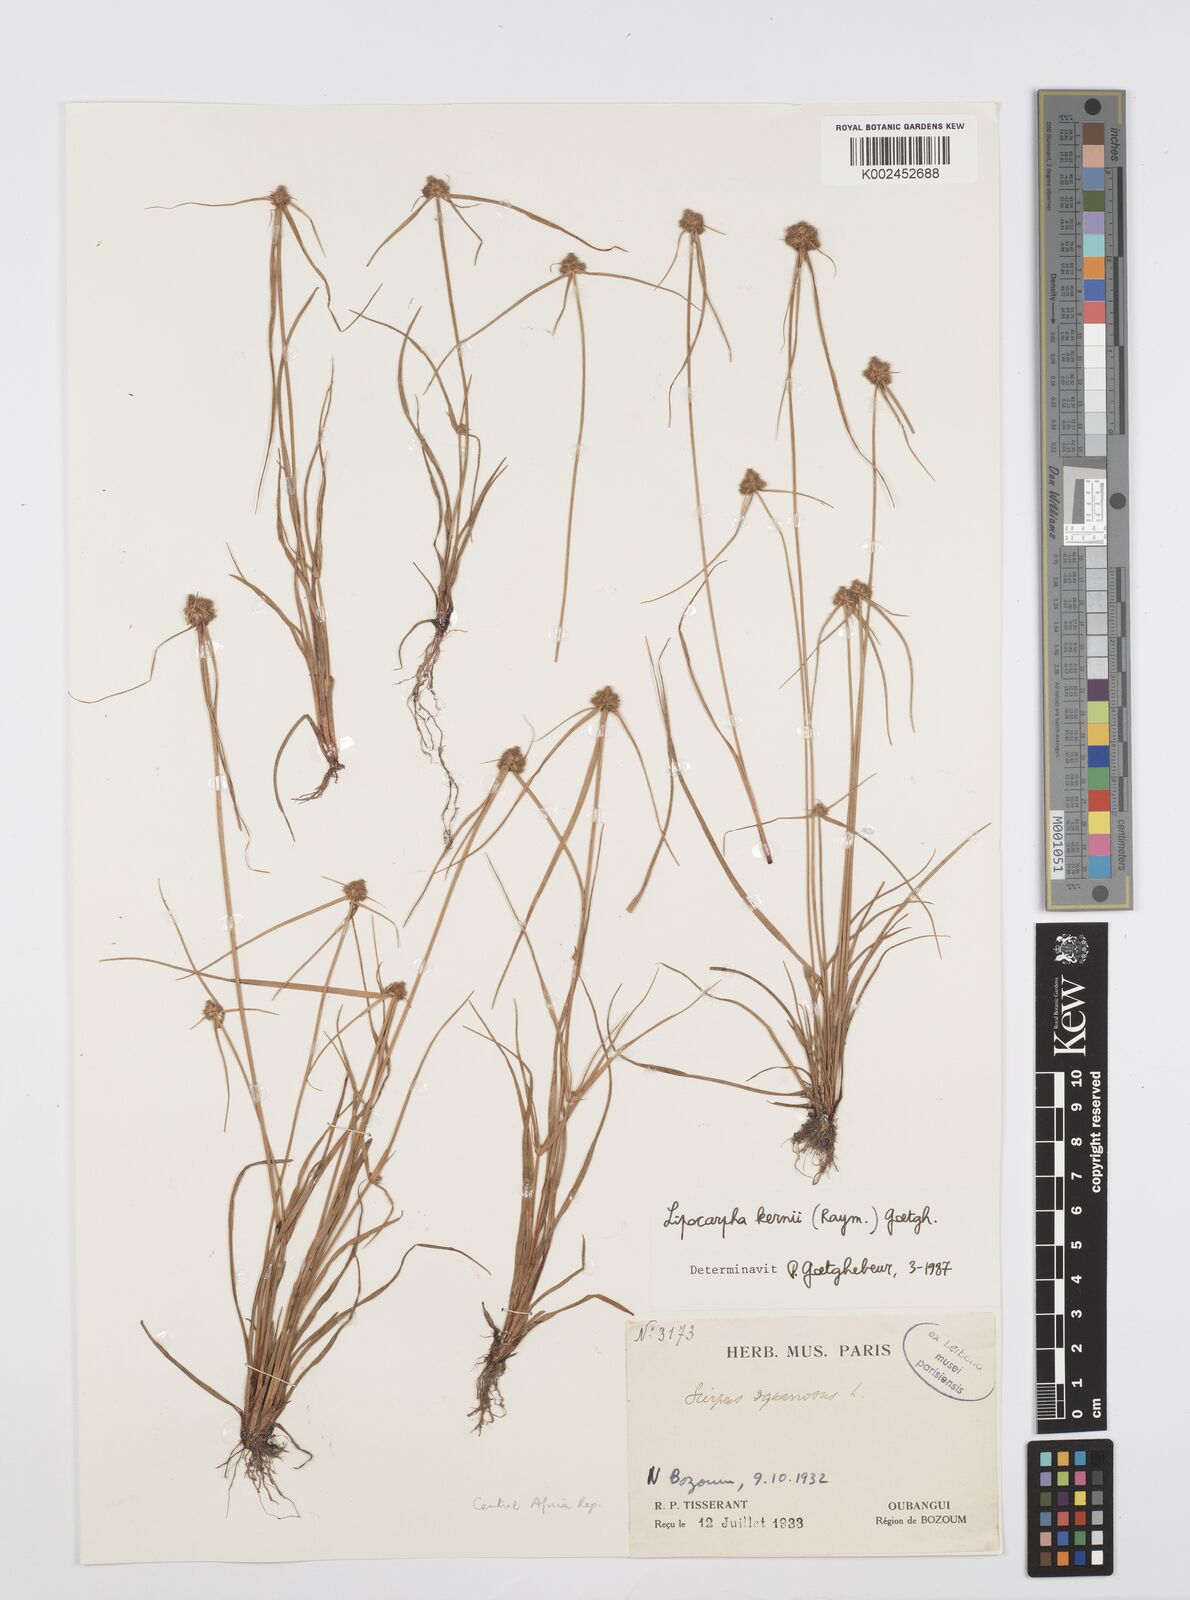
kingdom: Plantae
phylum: Tracheophyta
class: Liliopsida
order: Poales
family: Cyperaceae
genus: Cyperus
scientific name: Cyperus kernii
